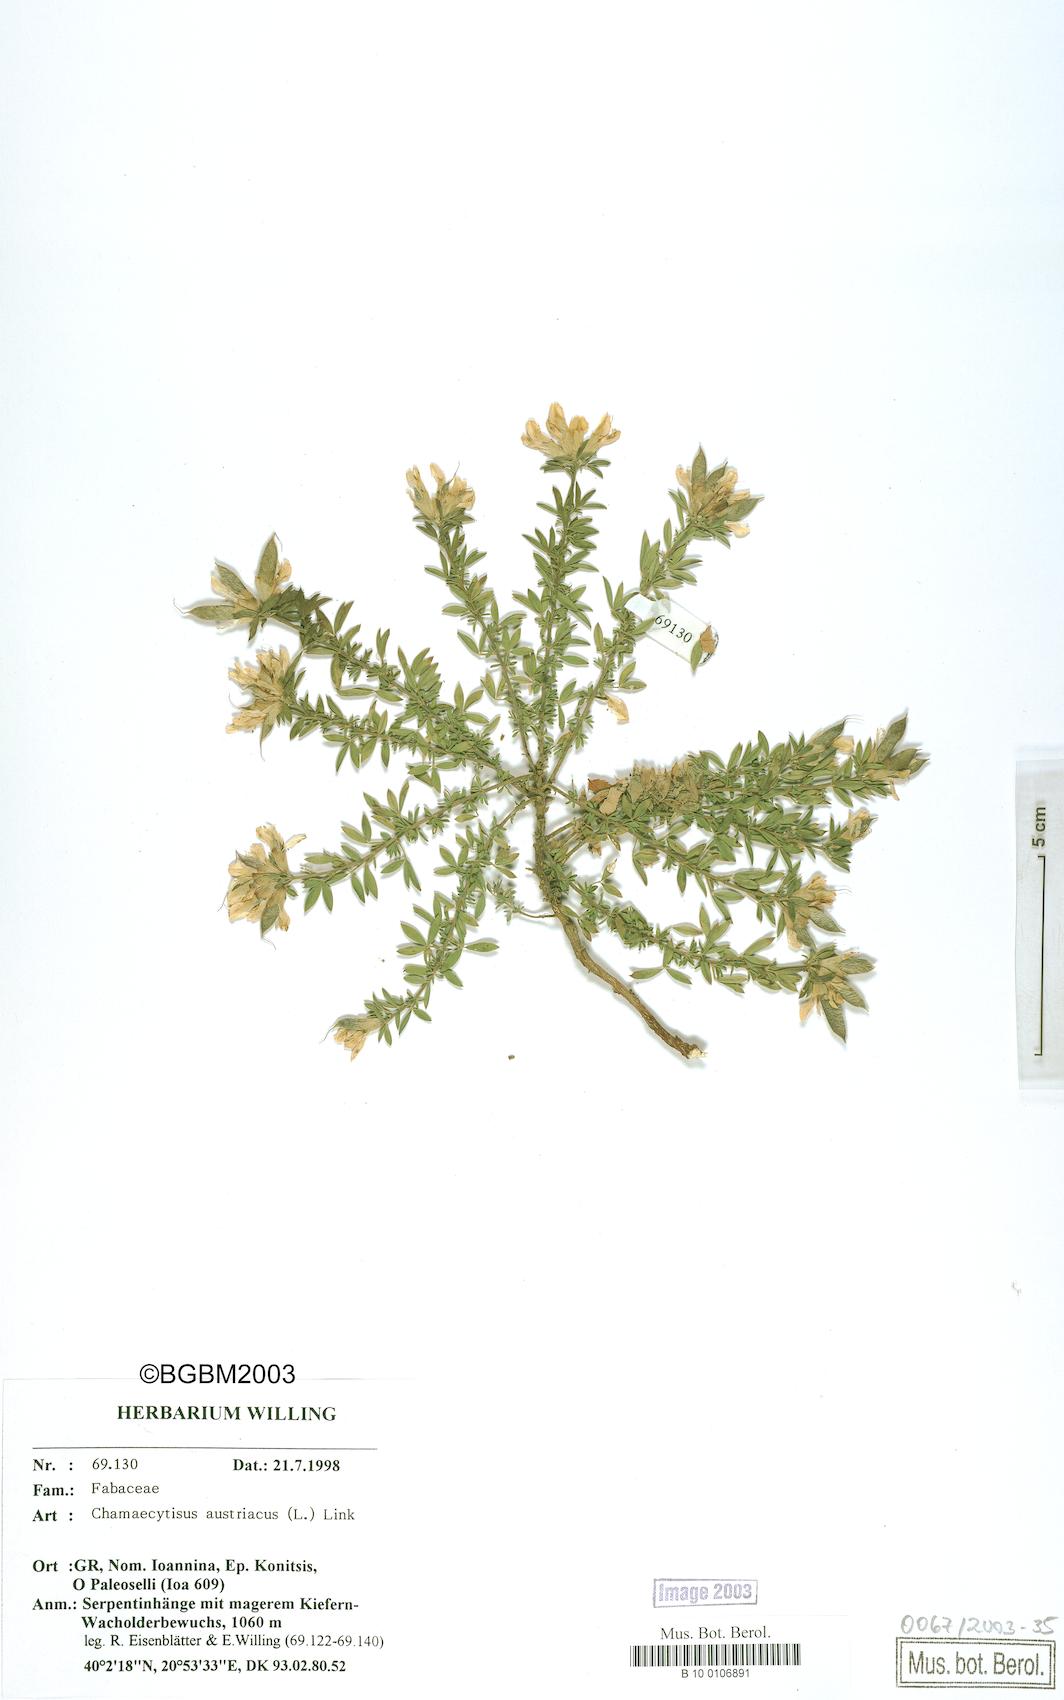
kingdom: Plantae
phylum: Tracheophyta
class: Magnoliopsida
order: Fabales
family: Fabaceae
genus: Chamaecytisus
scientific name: Chamaecytisus austriacus
